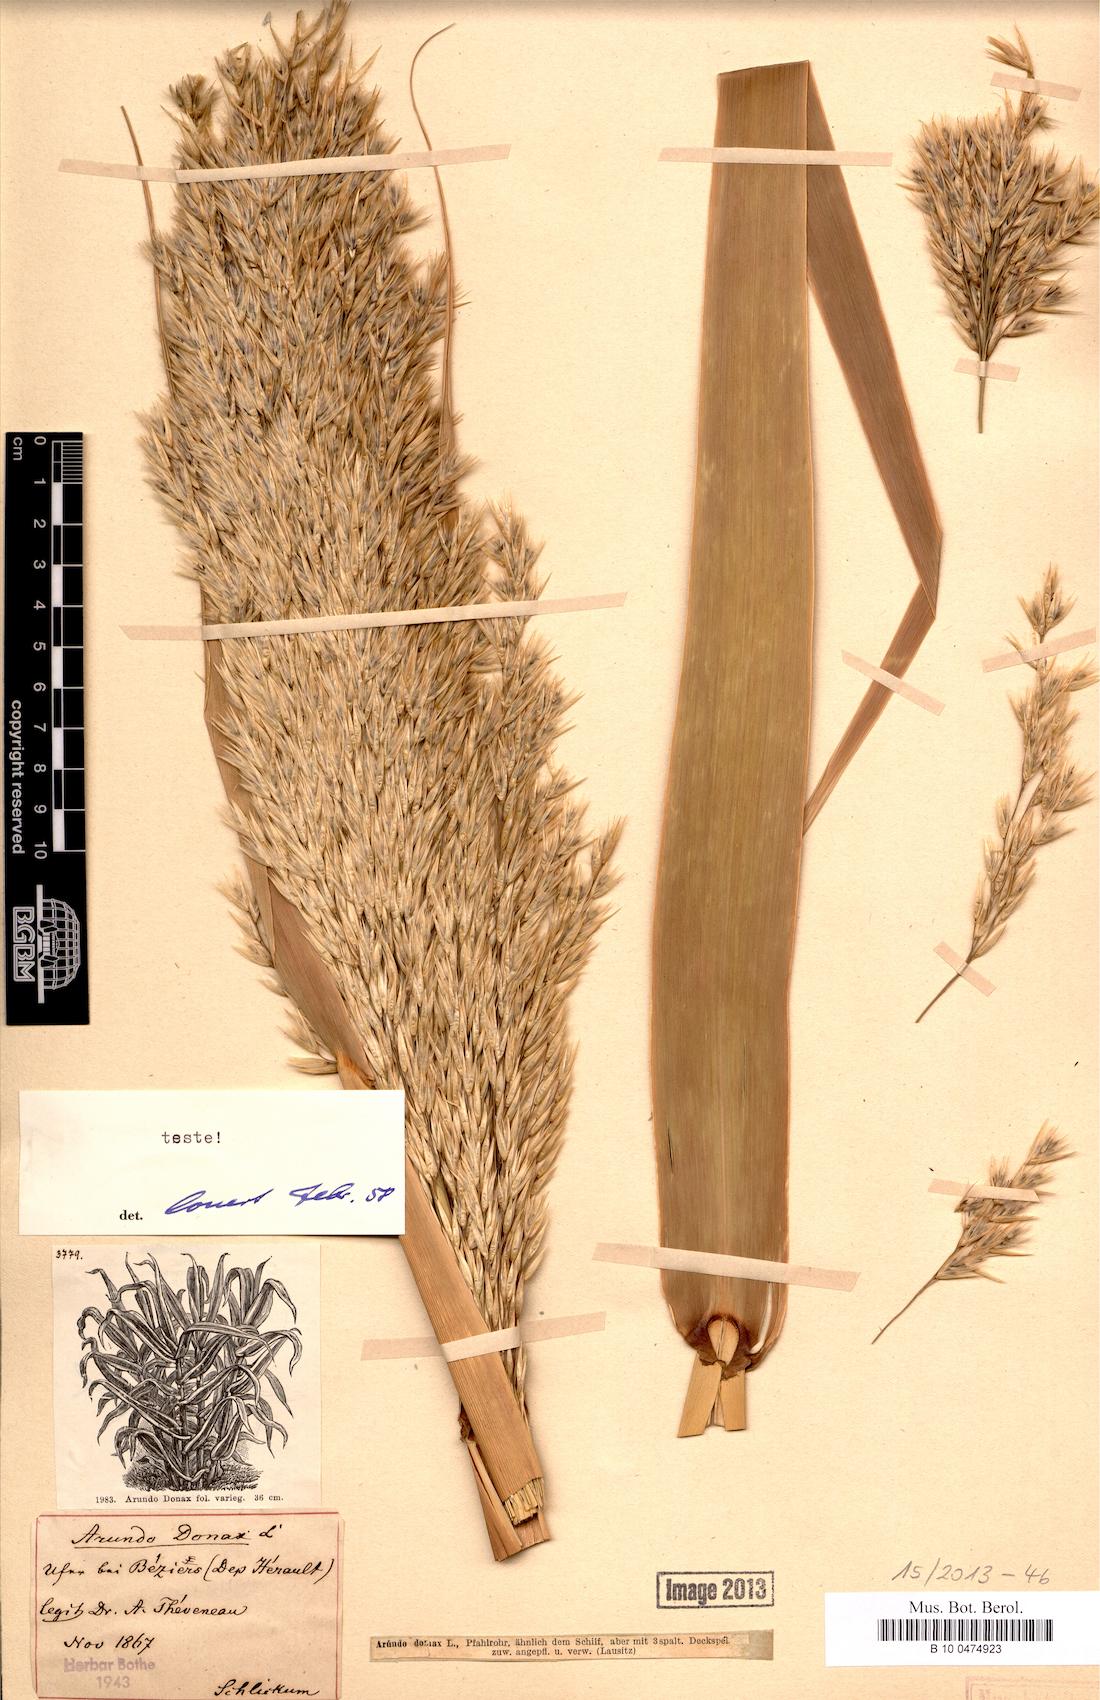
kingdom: Plantae
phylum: Tracheophyta
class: Liliopsida
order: Poales
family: Poaceae
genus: Arundo
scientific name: Arundo donax
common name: Giant reed
